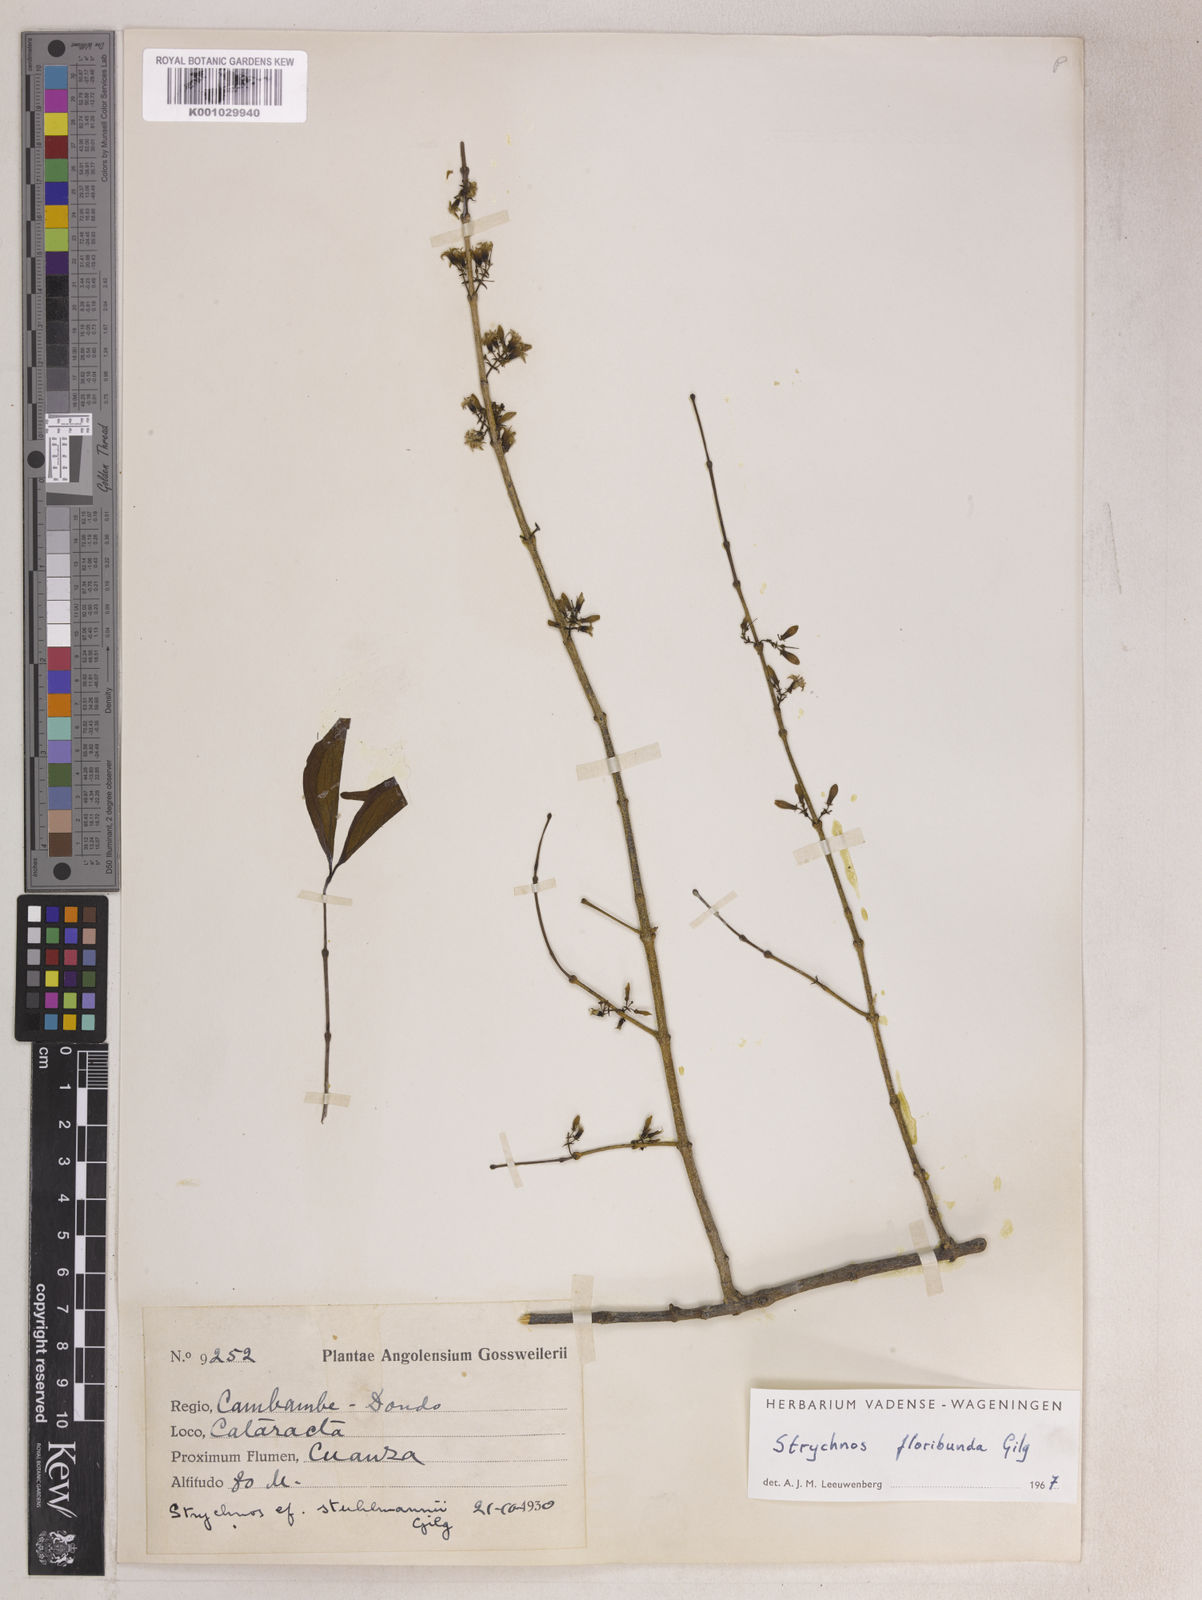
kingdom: Plantae
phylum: Tracheophyta
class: Magnoliopsida
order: Gentianales
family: Loganiaceae
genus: Strychnos
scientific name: Strychnos floribunda
